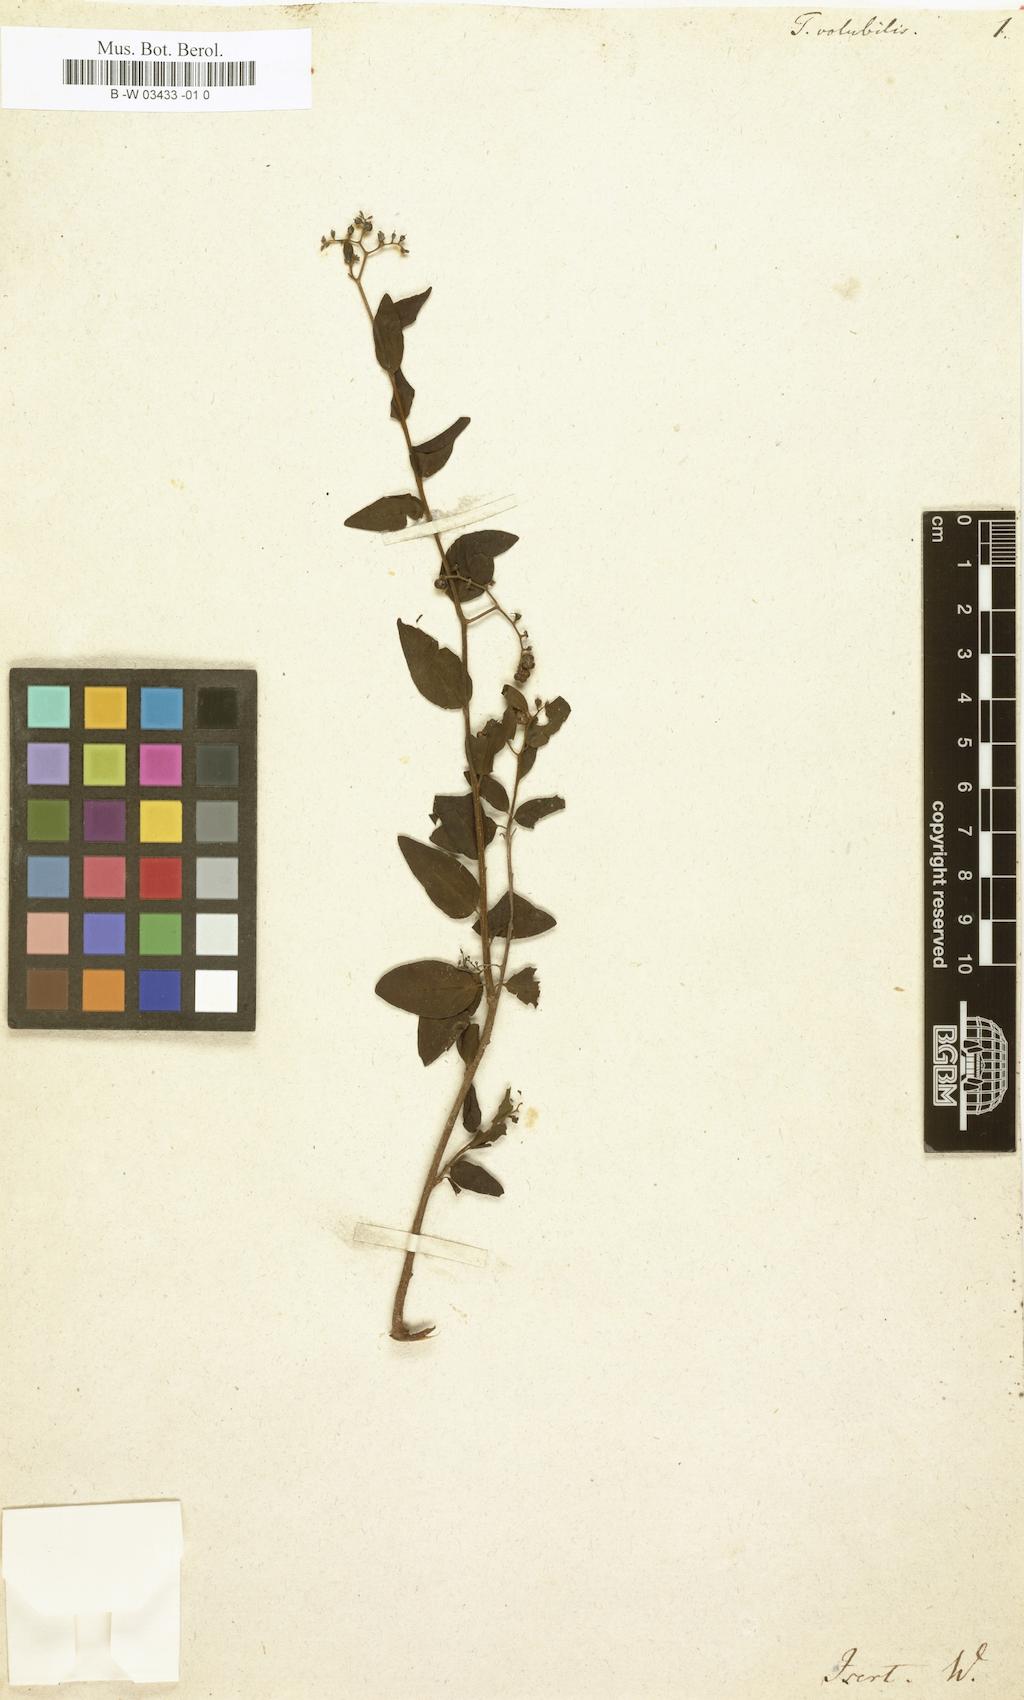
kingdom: Plantae
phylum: Tracheophyta
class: Magnoliopsida
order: Boraginales
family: Heliotropiaceae
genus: Myriopus
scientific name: Myriopus
